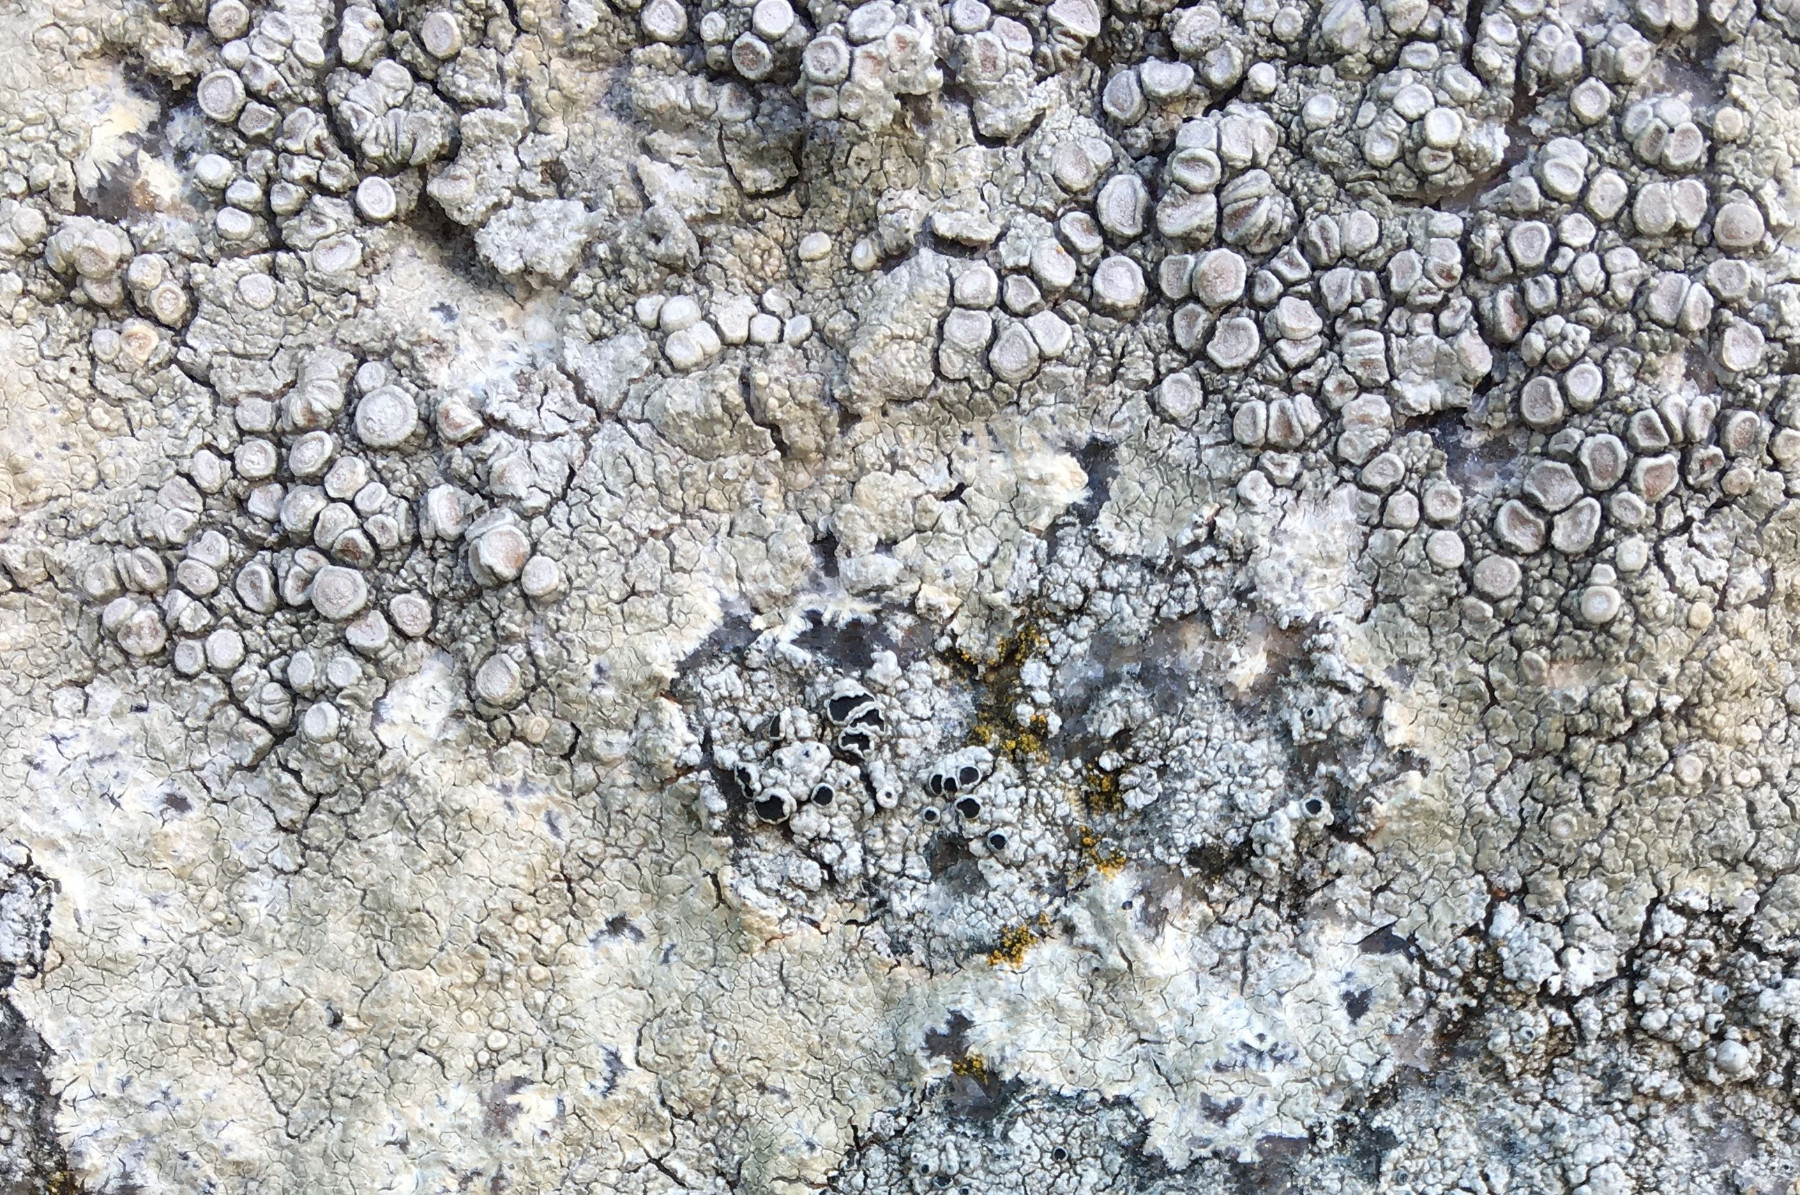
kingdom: Fungi
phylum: Ascomycota
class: Lecanoromycetes
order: Pertusariales
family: Ochrolechiaceae
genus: Ochrolechia
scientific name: Ochrolechia parella
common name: almindelig blegskivelav
